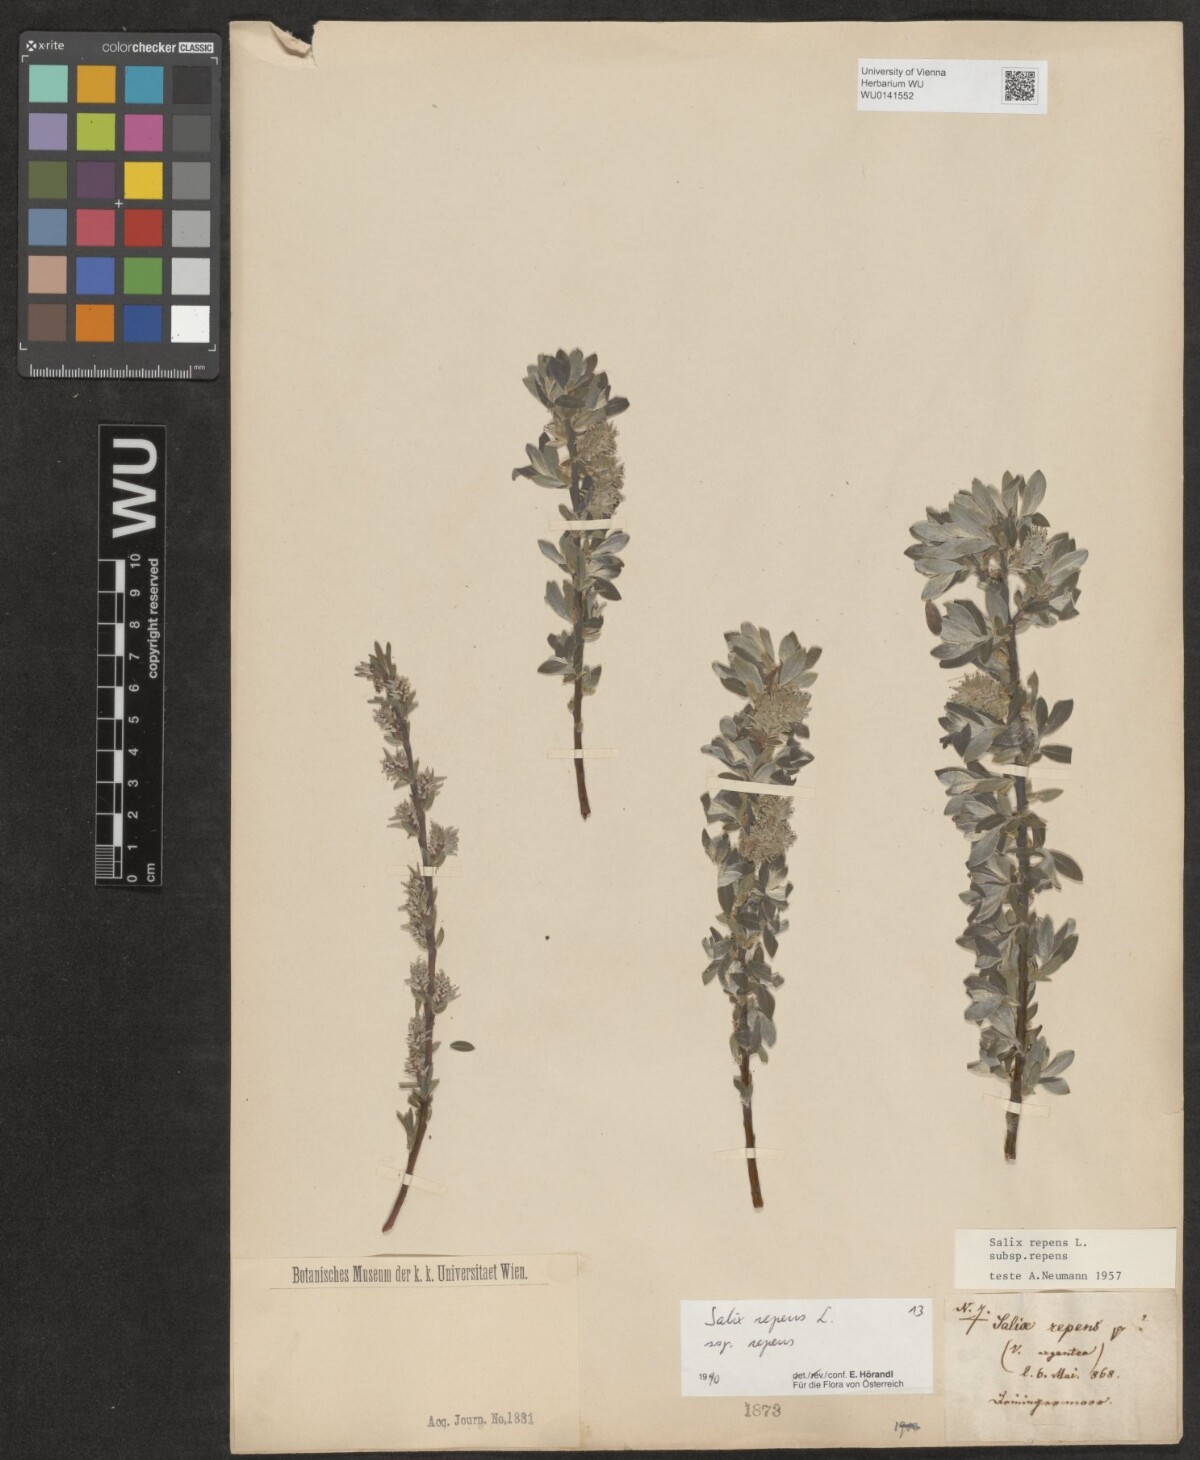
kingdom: Plantae
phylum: Tracheophyta
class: Magnoliopsida
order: Malpighiales
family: Salicaceae
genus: Salix
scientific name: Salix repens
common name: Creeping willow
